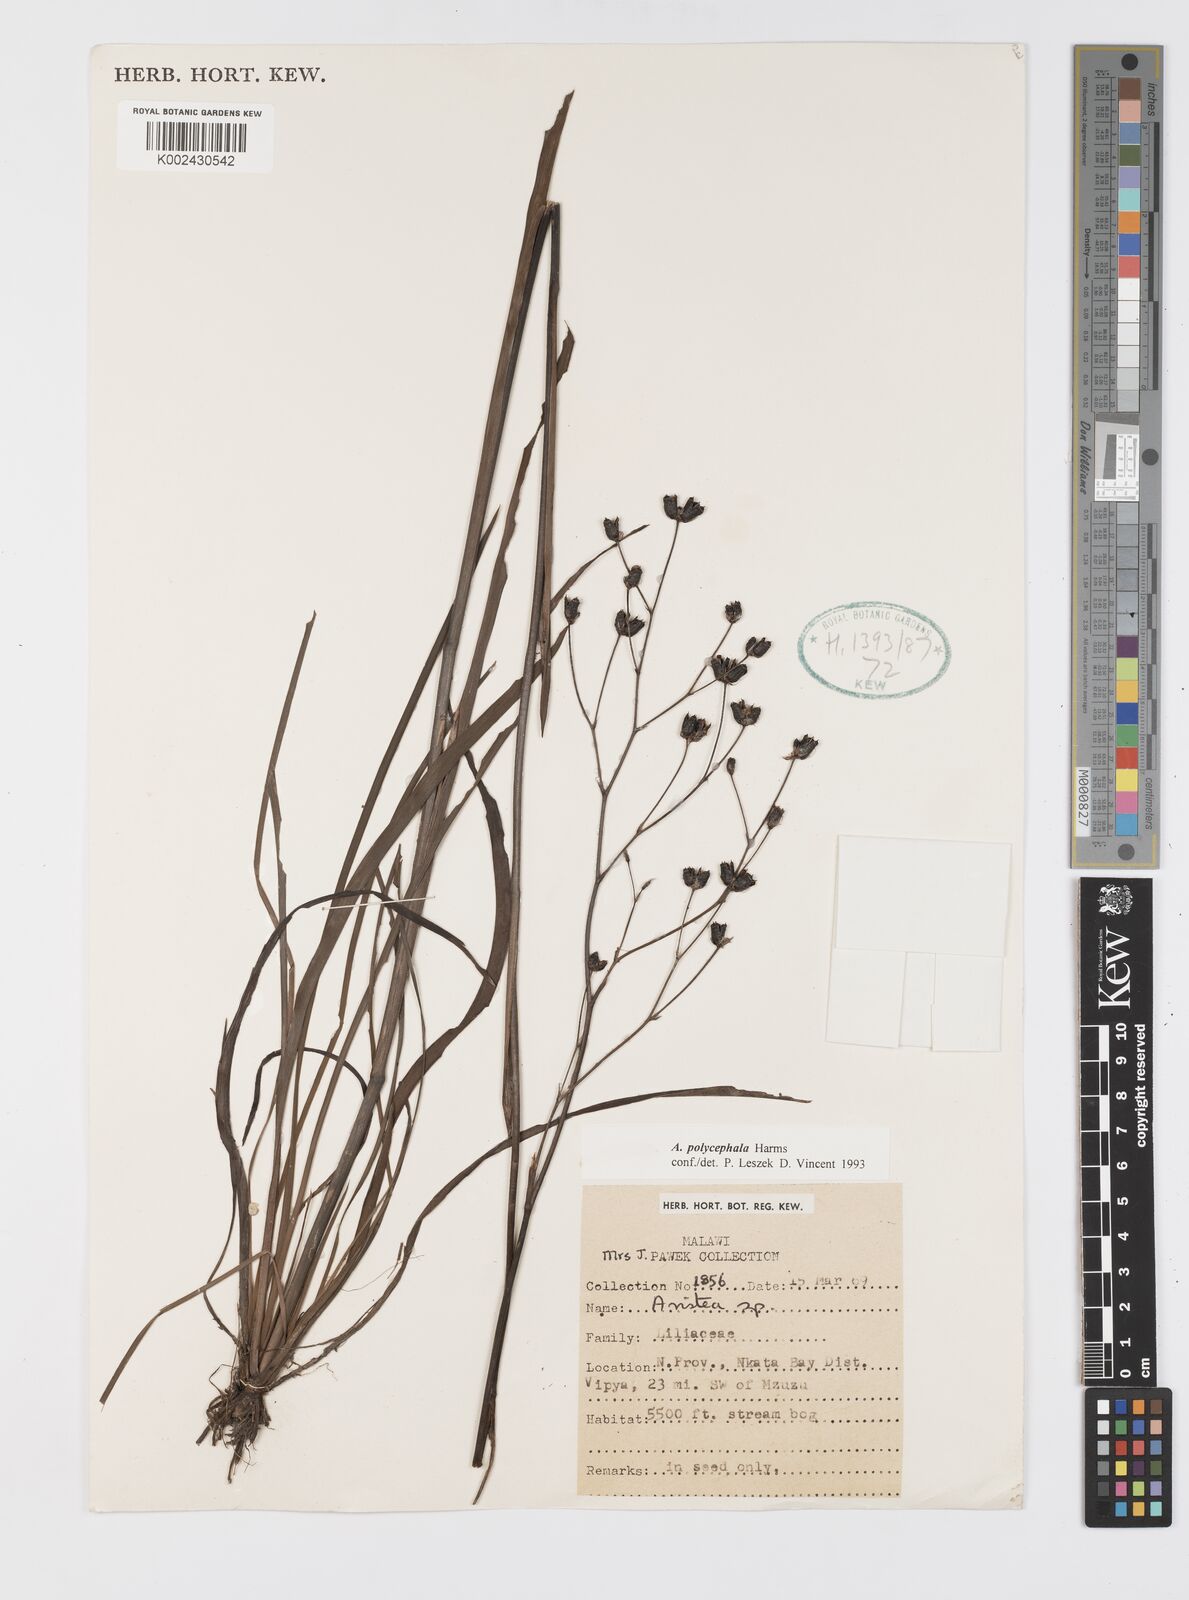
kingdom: Plantae
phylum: Tracheophyta
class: Liliopsida
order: Asparagales
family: Iridaceae
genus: Aristea
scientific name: Aristea polycephala
